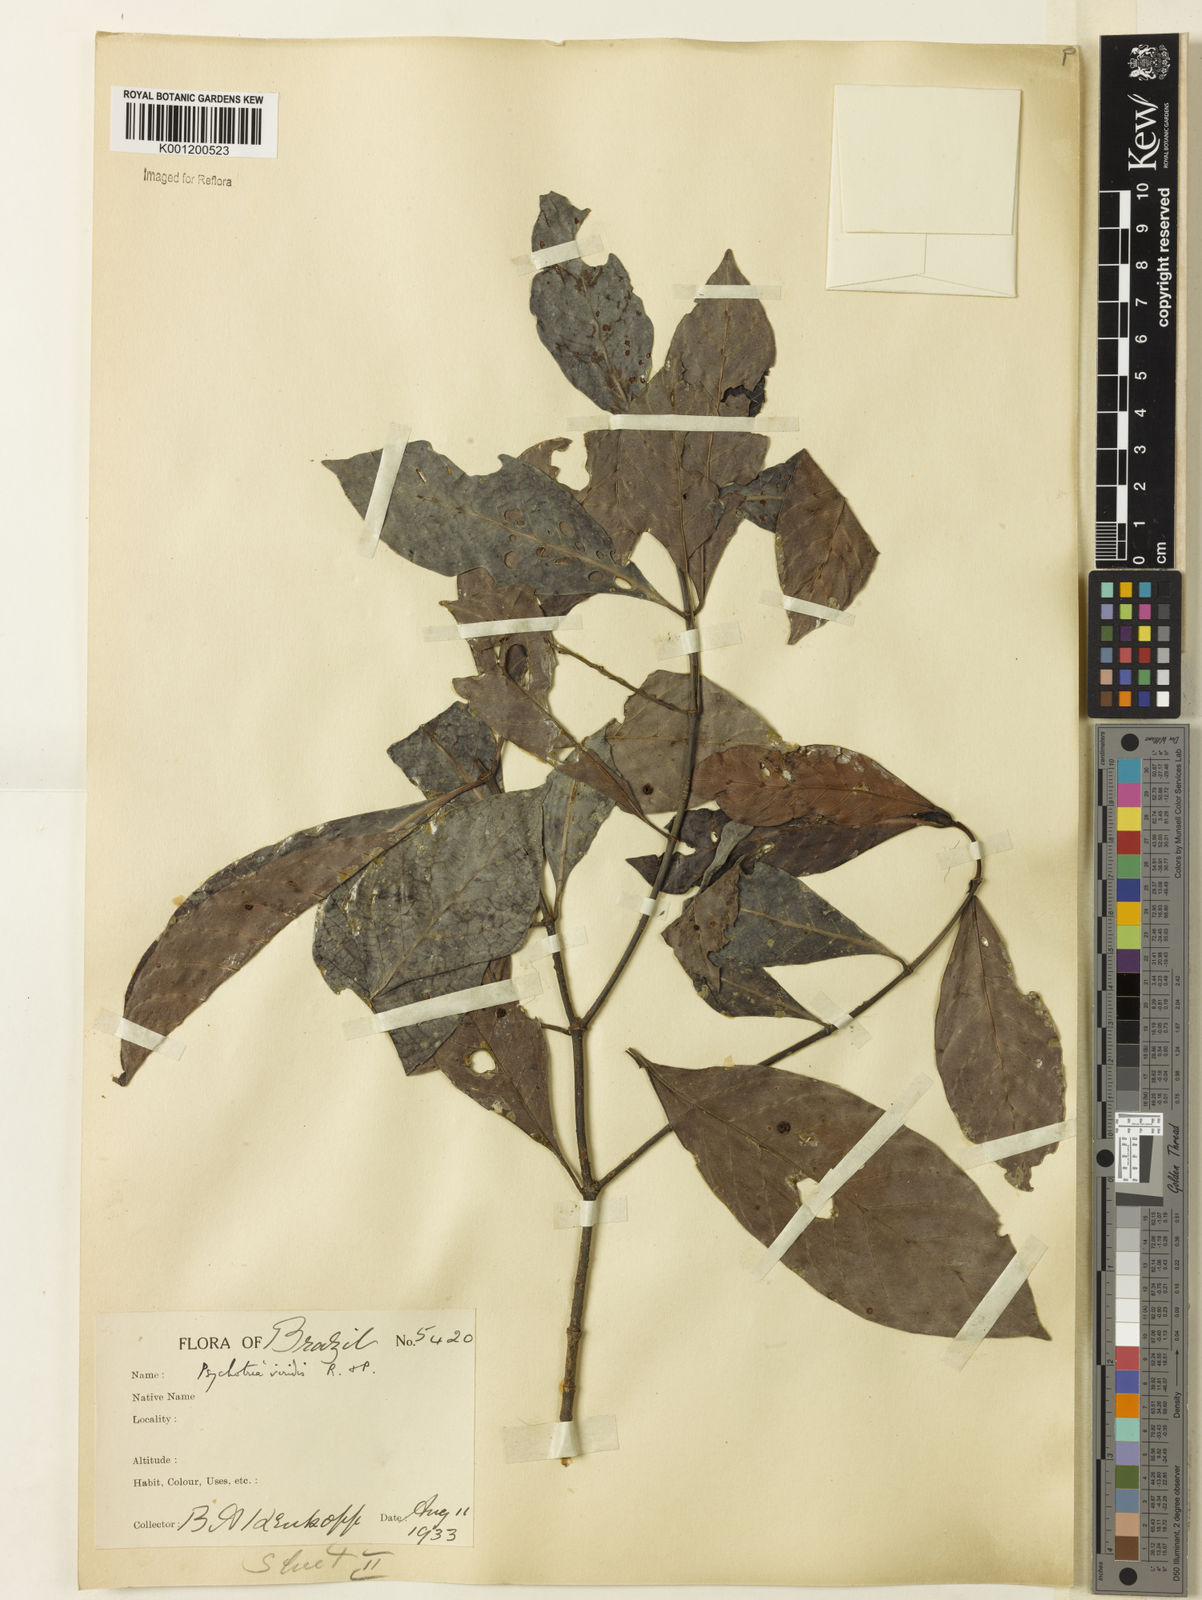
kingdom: Plantae
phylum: Tracheophyta
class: Magnoliopsida
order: Gentianales
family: Rubiaceae
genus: Psychotria
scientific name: Psychotria viridis
